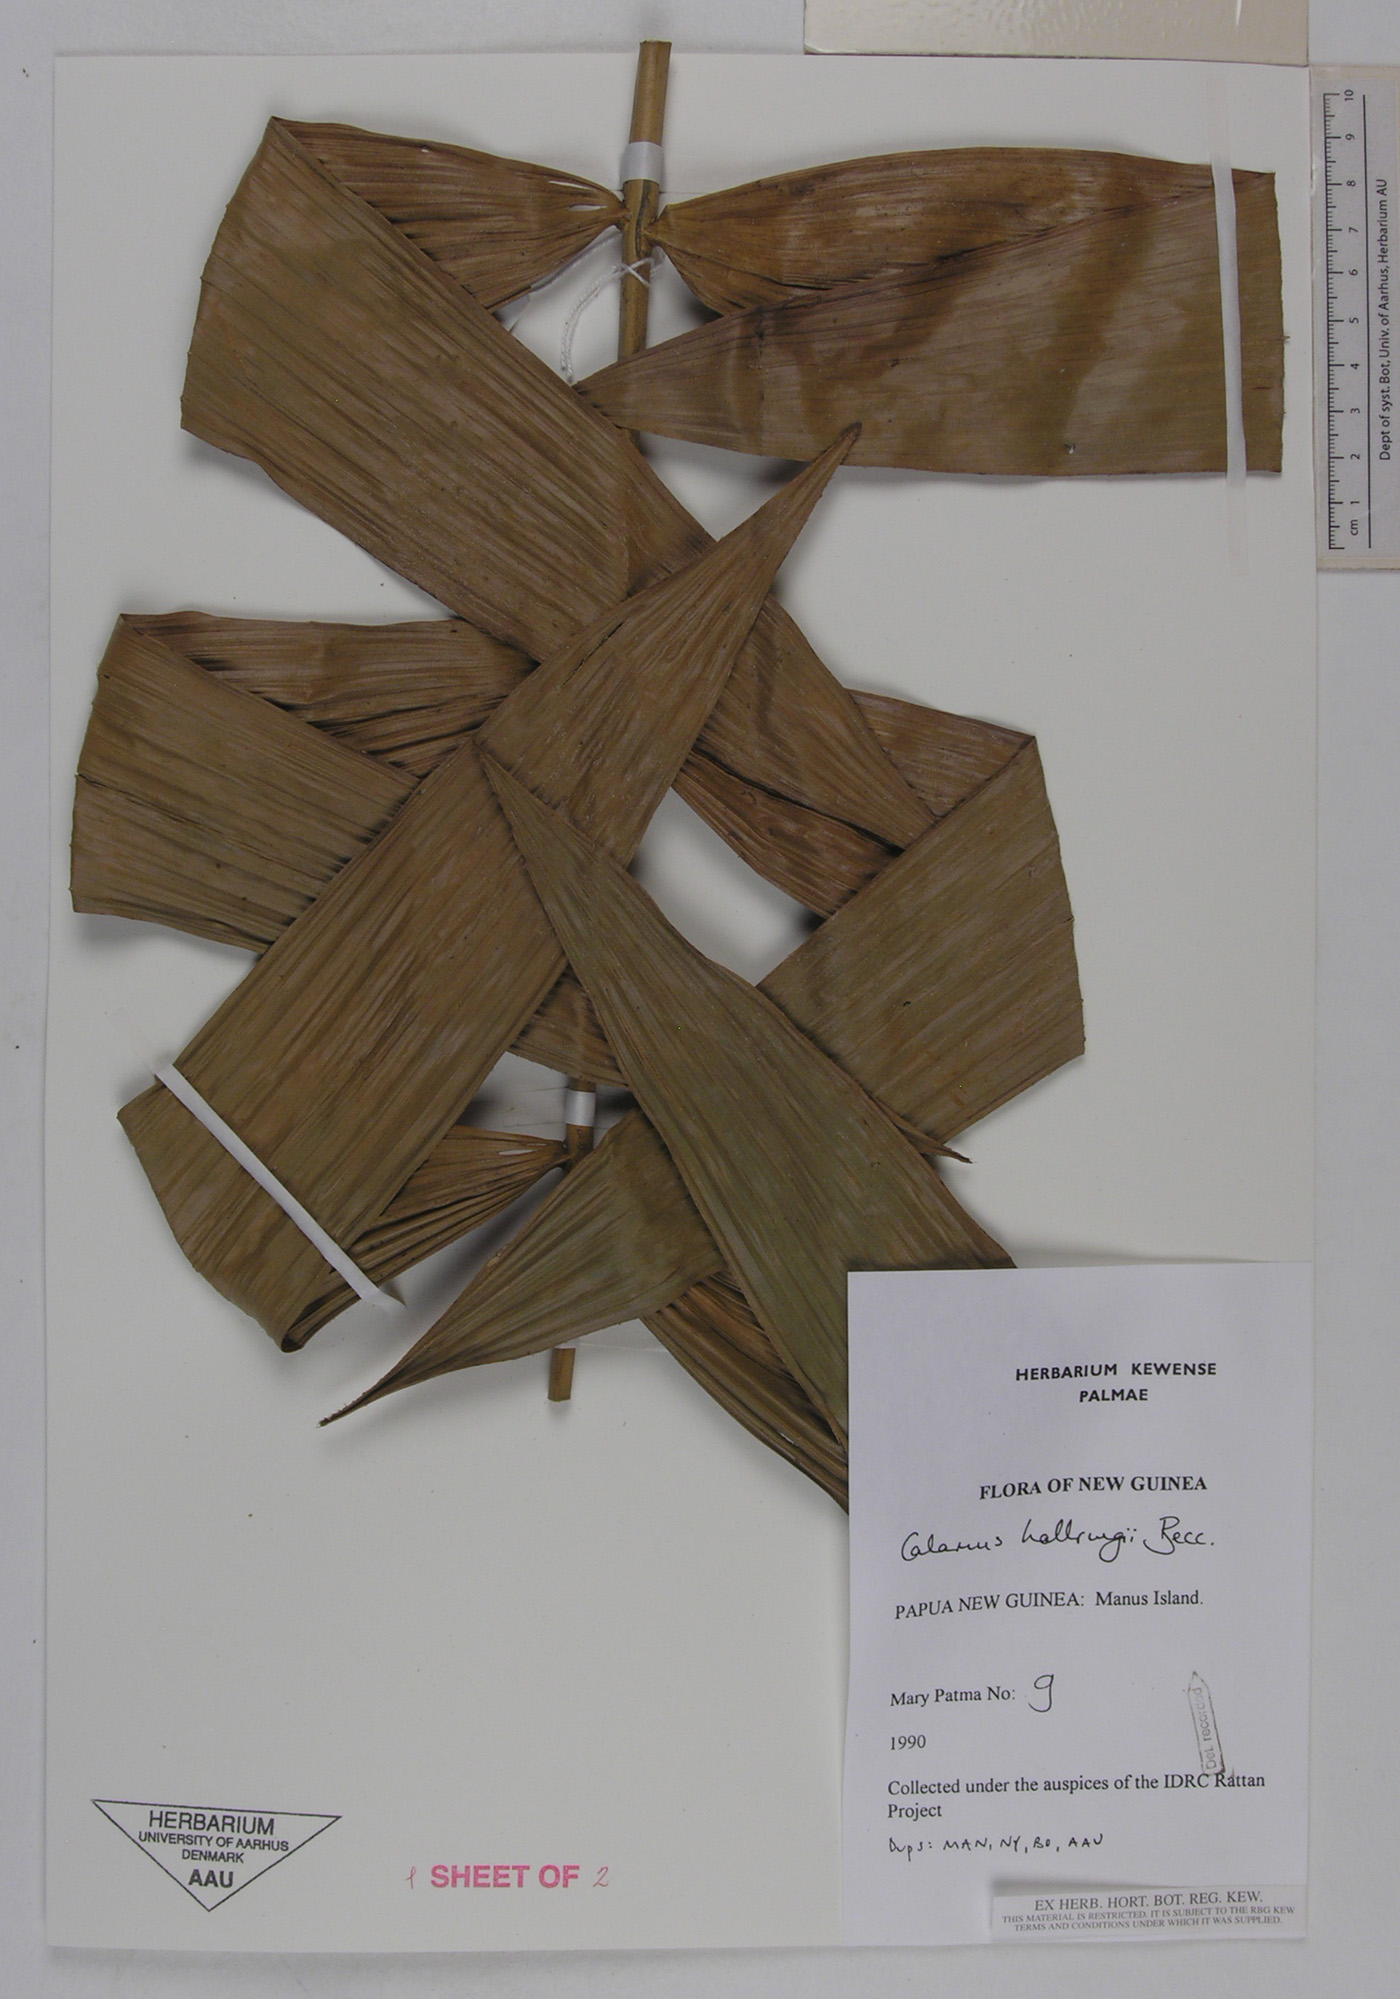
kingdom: Plantae
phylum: Tracheophyta
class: Liliopsida
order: Arecales
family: Arecaceae
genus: Calamus
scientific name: Calamus aruensis
